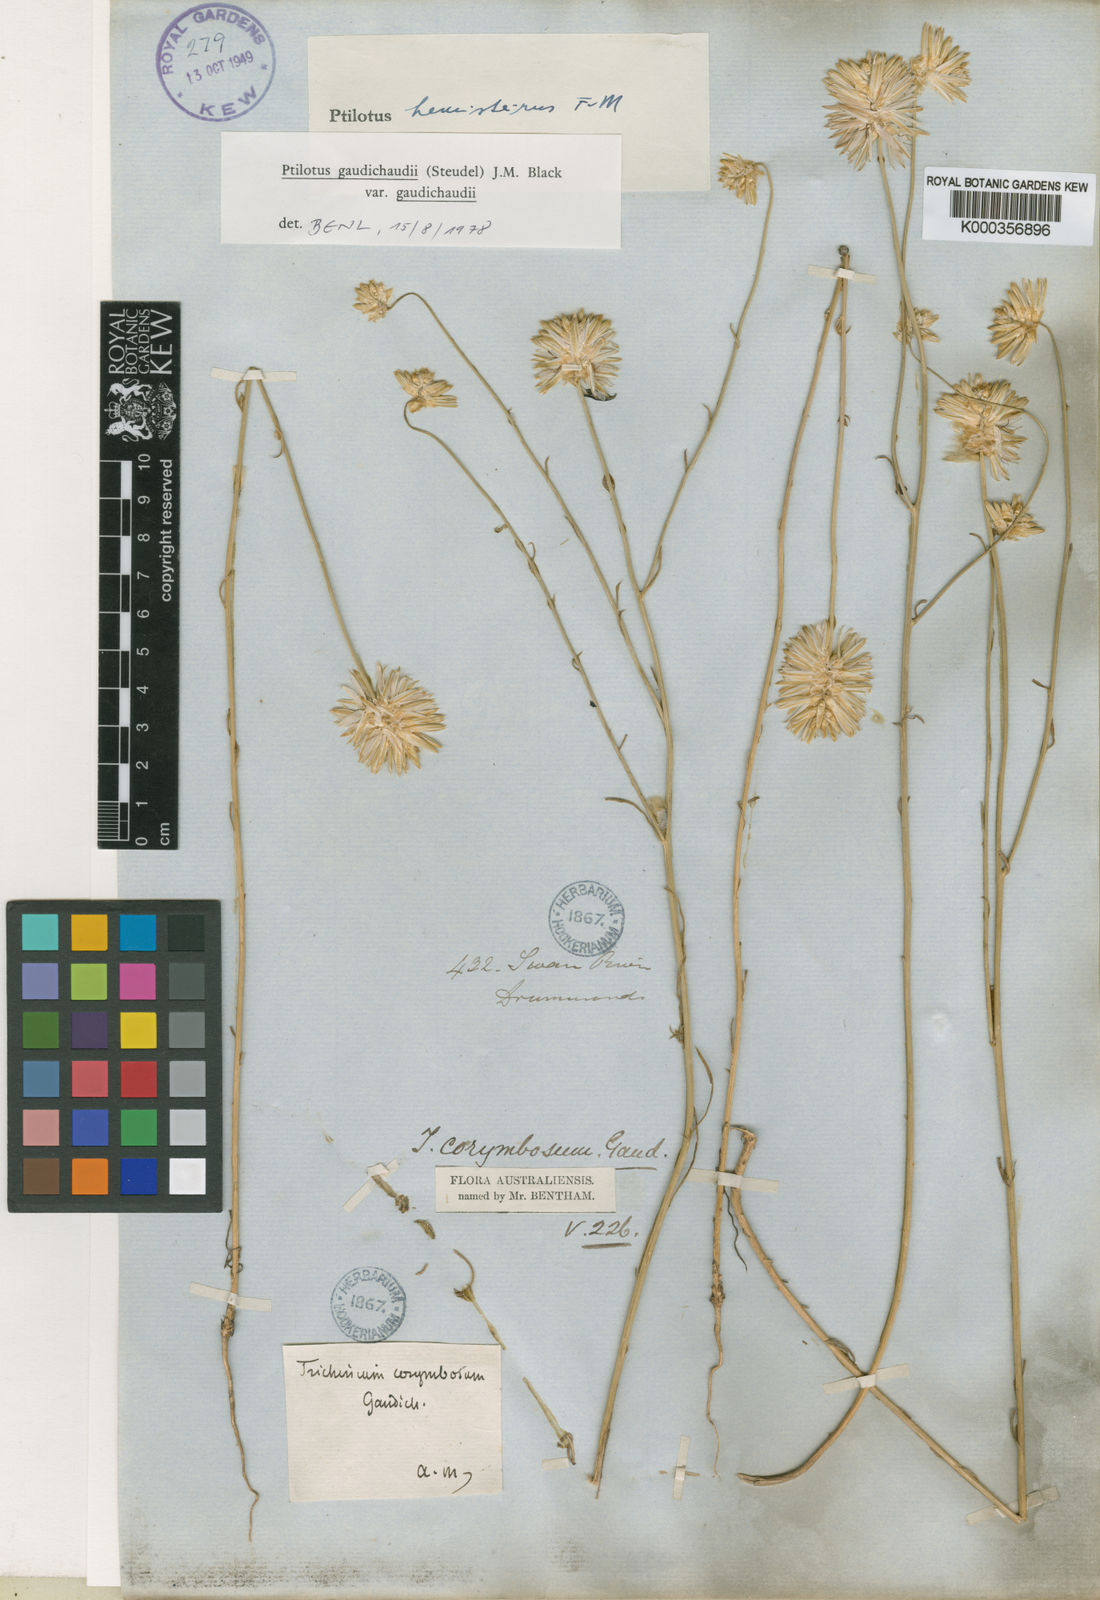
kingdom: Plantae
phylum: Tracheophyta
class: Magnoliopsida
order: Caryophyllales
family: Amaranthaceae
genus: Ptilotus
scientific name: Ptilotus
